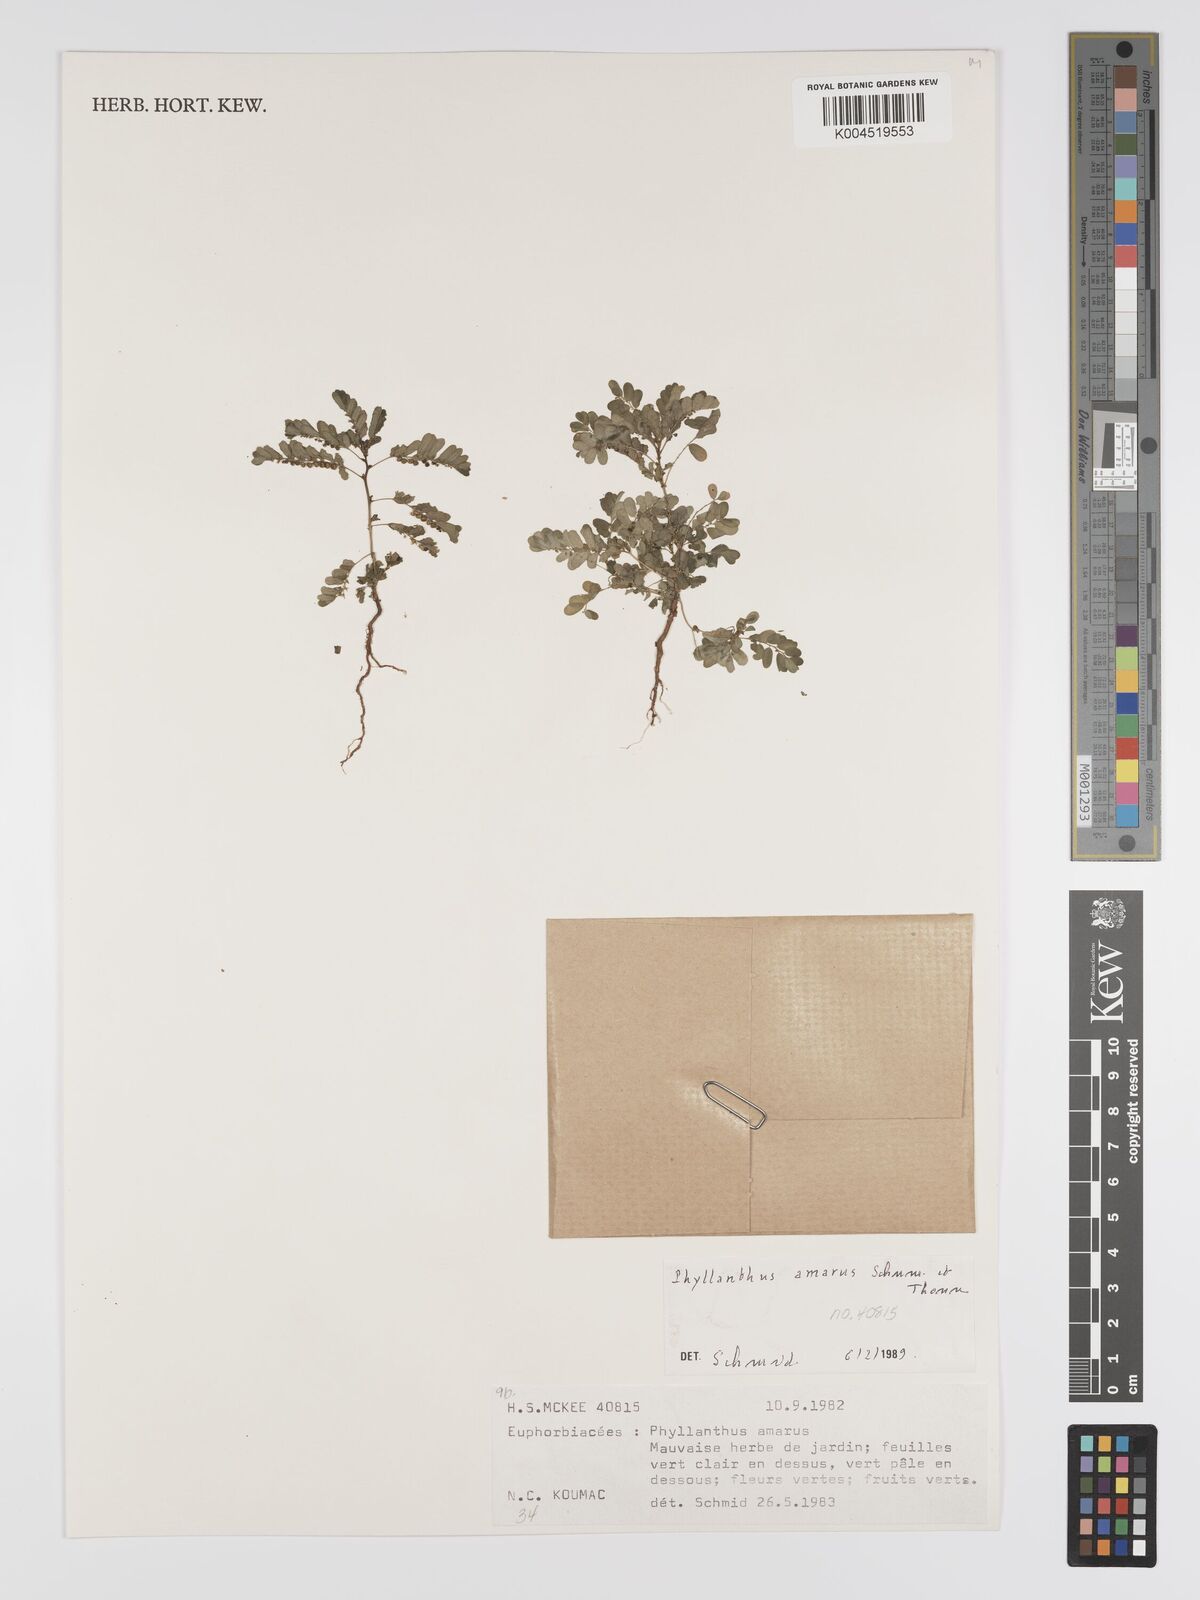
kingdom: Plantae
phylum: Tracheophyta
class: Magnoliopsida
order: Malpighiales
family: Phyllanthaceae
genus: Phyllanthus
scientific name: Phyllanthus aeneus
